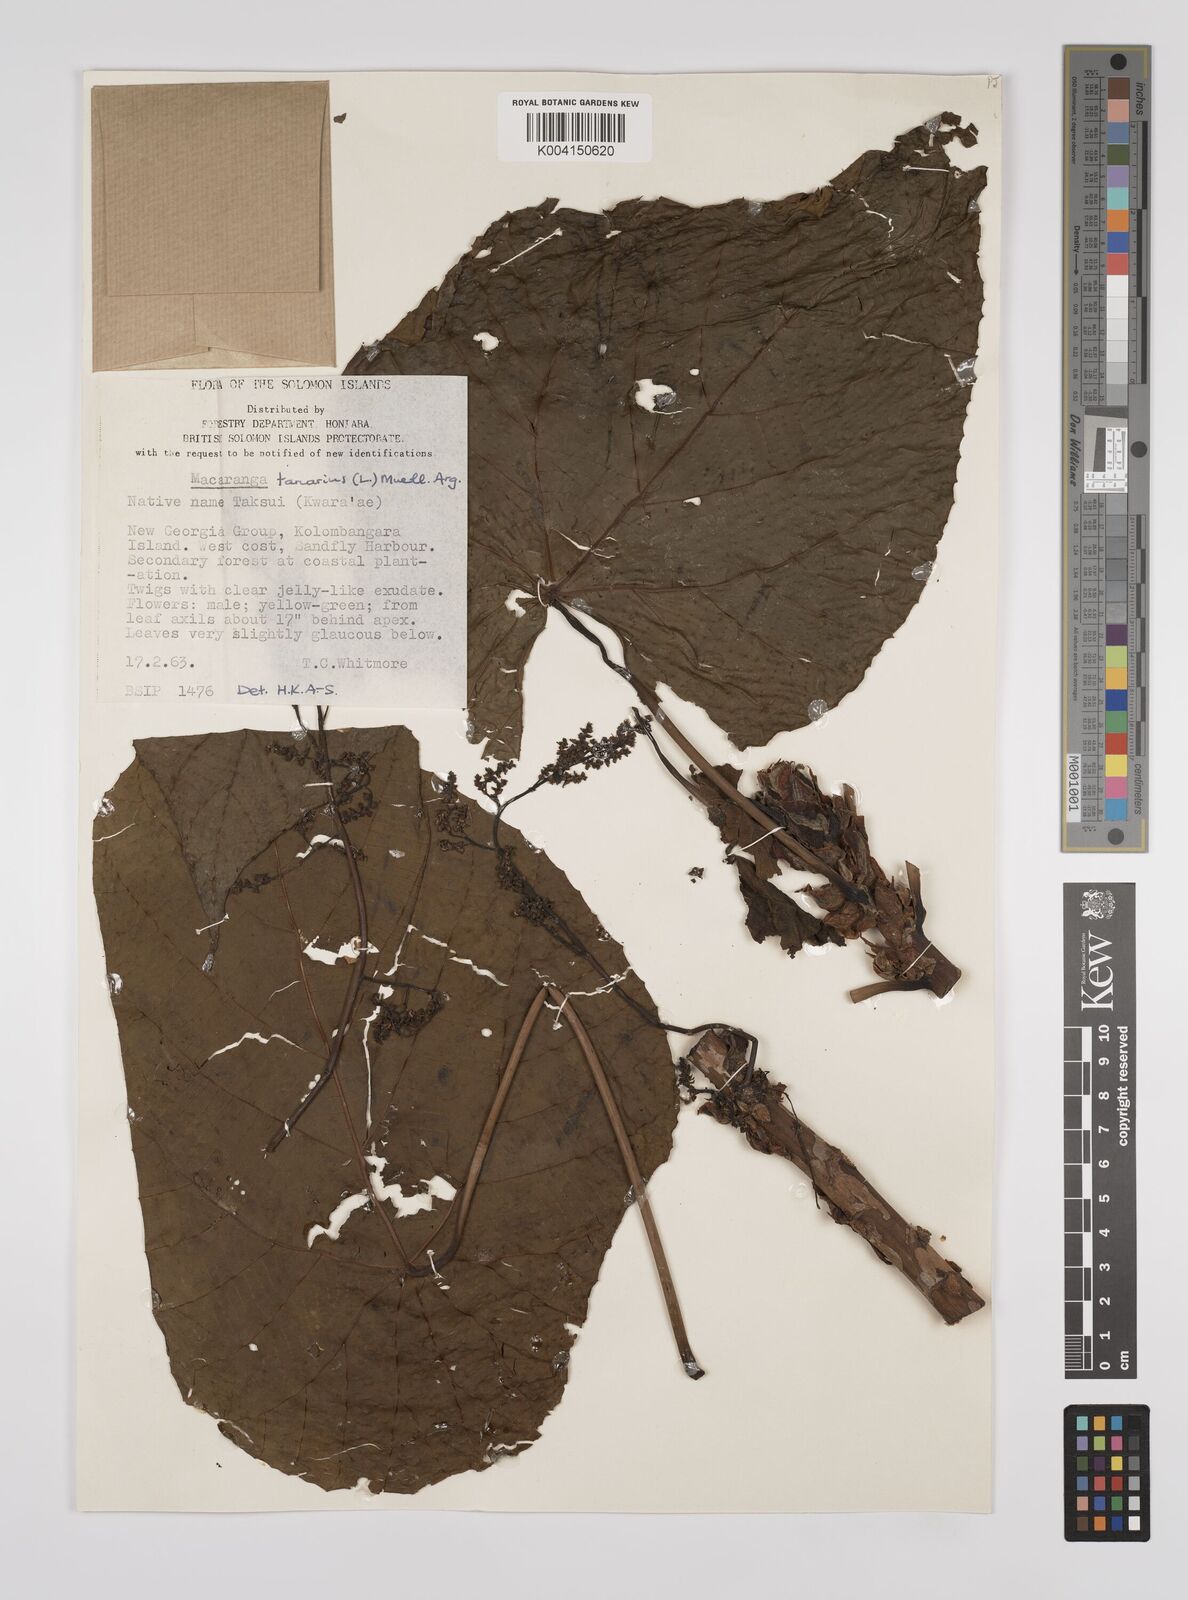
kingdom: Plantae
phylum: Tracheophyta
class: Magnoliopsida
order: Malpighiales
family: Euphorbiaceae
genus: Macaranga
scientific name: Macaranga tanarius
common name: Parasol leaf tree
